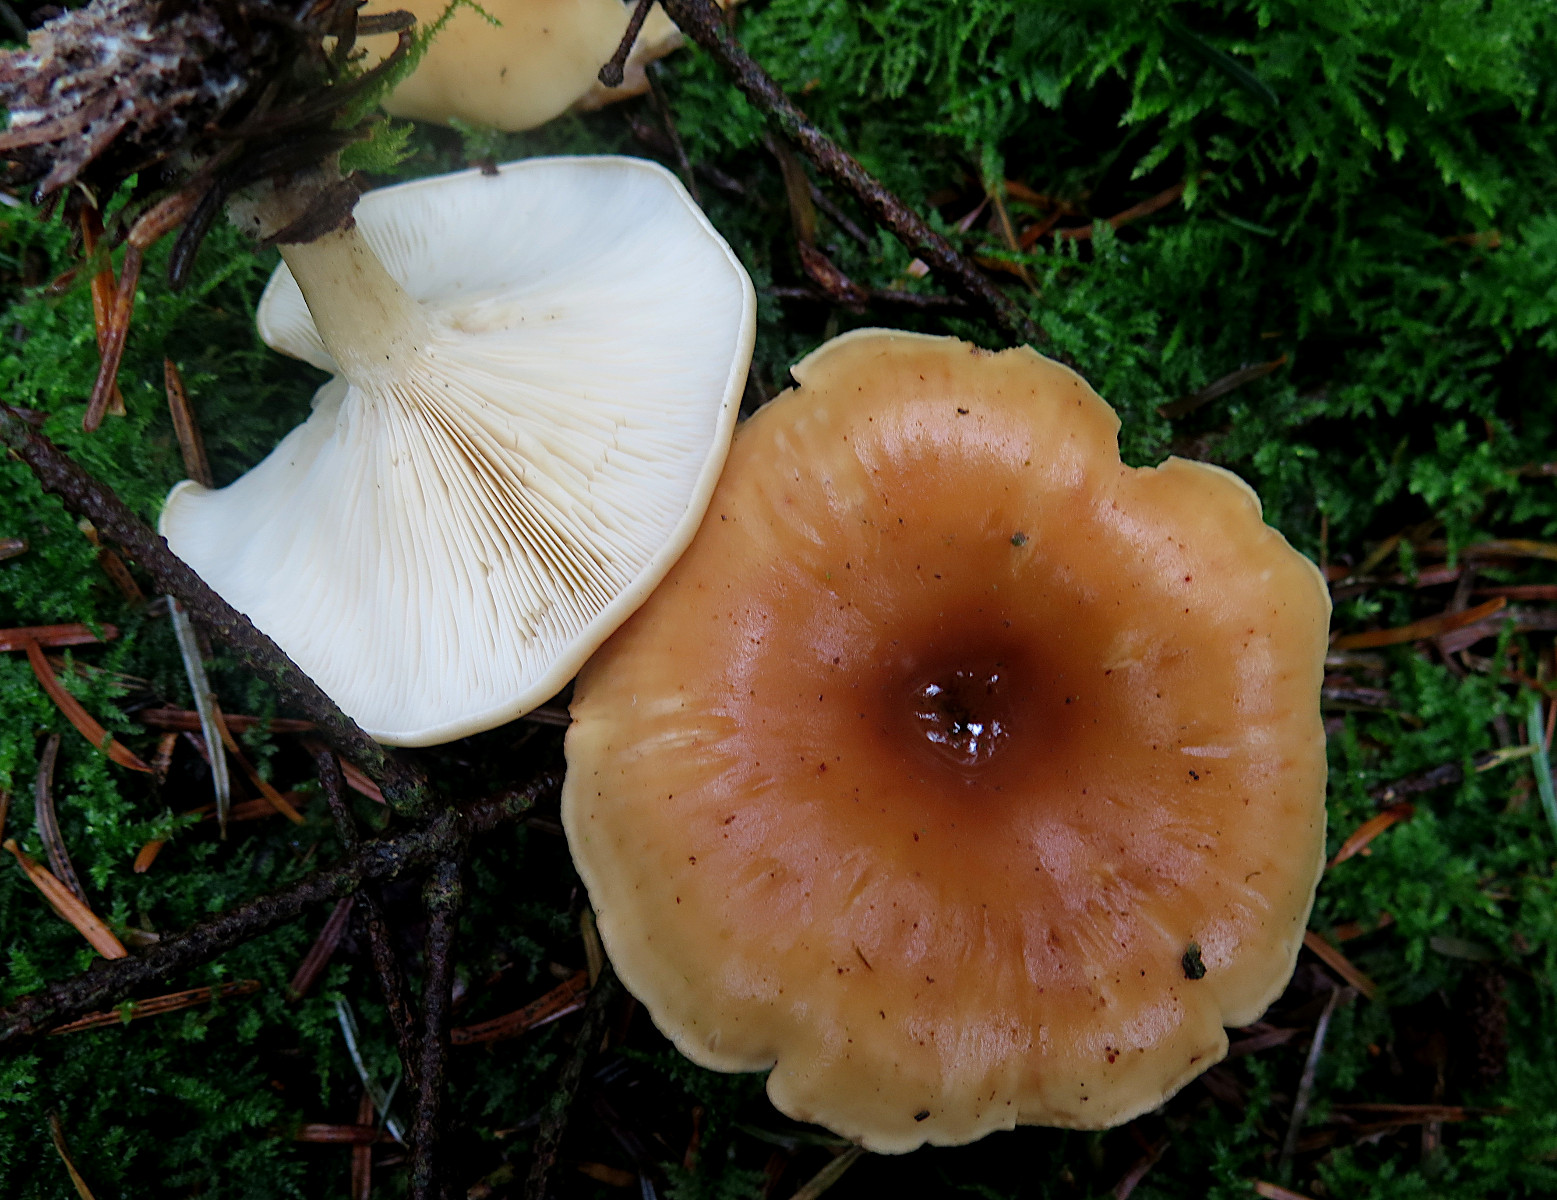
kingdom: Fungi
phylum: Basidiomycota
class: Agaricomycetes
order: Agaricales
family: Tricholomataceae
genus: Paralepista
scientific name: Paralepista flaccida
